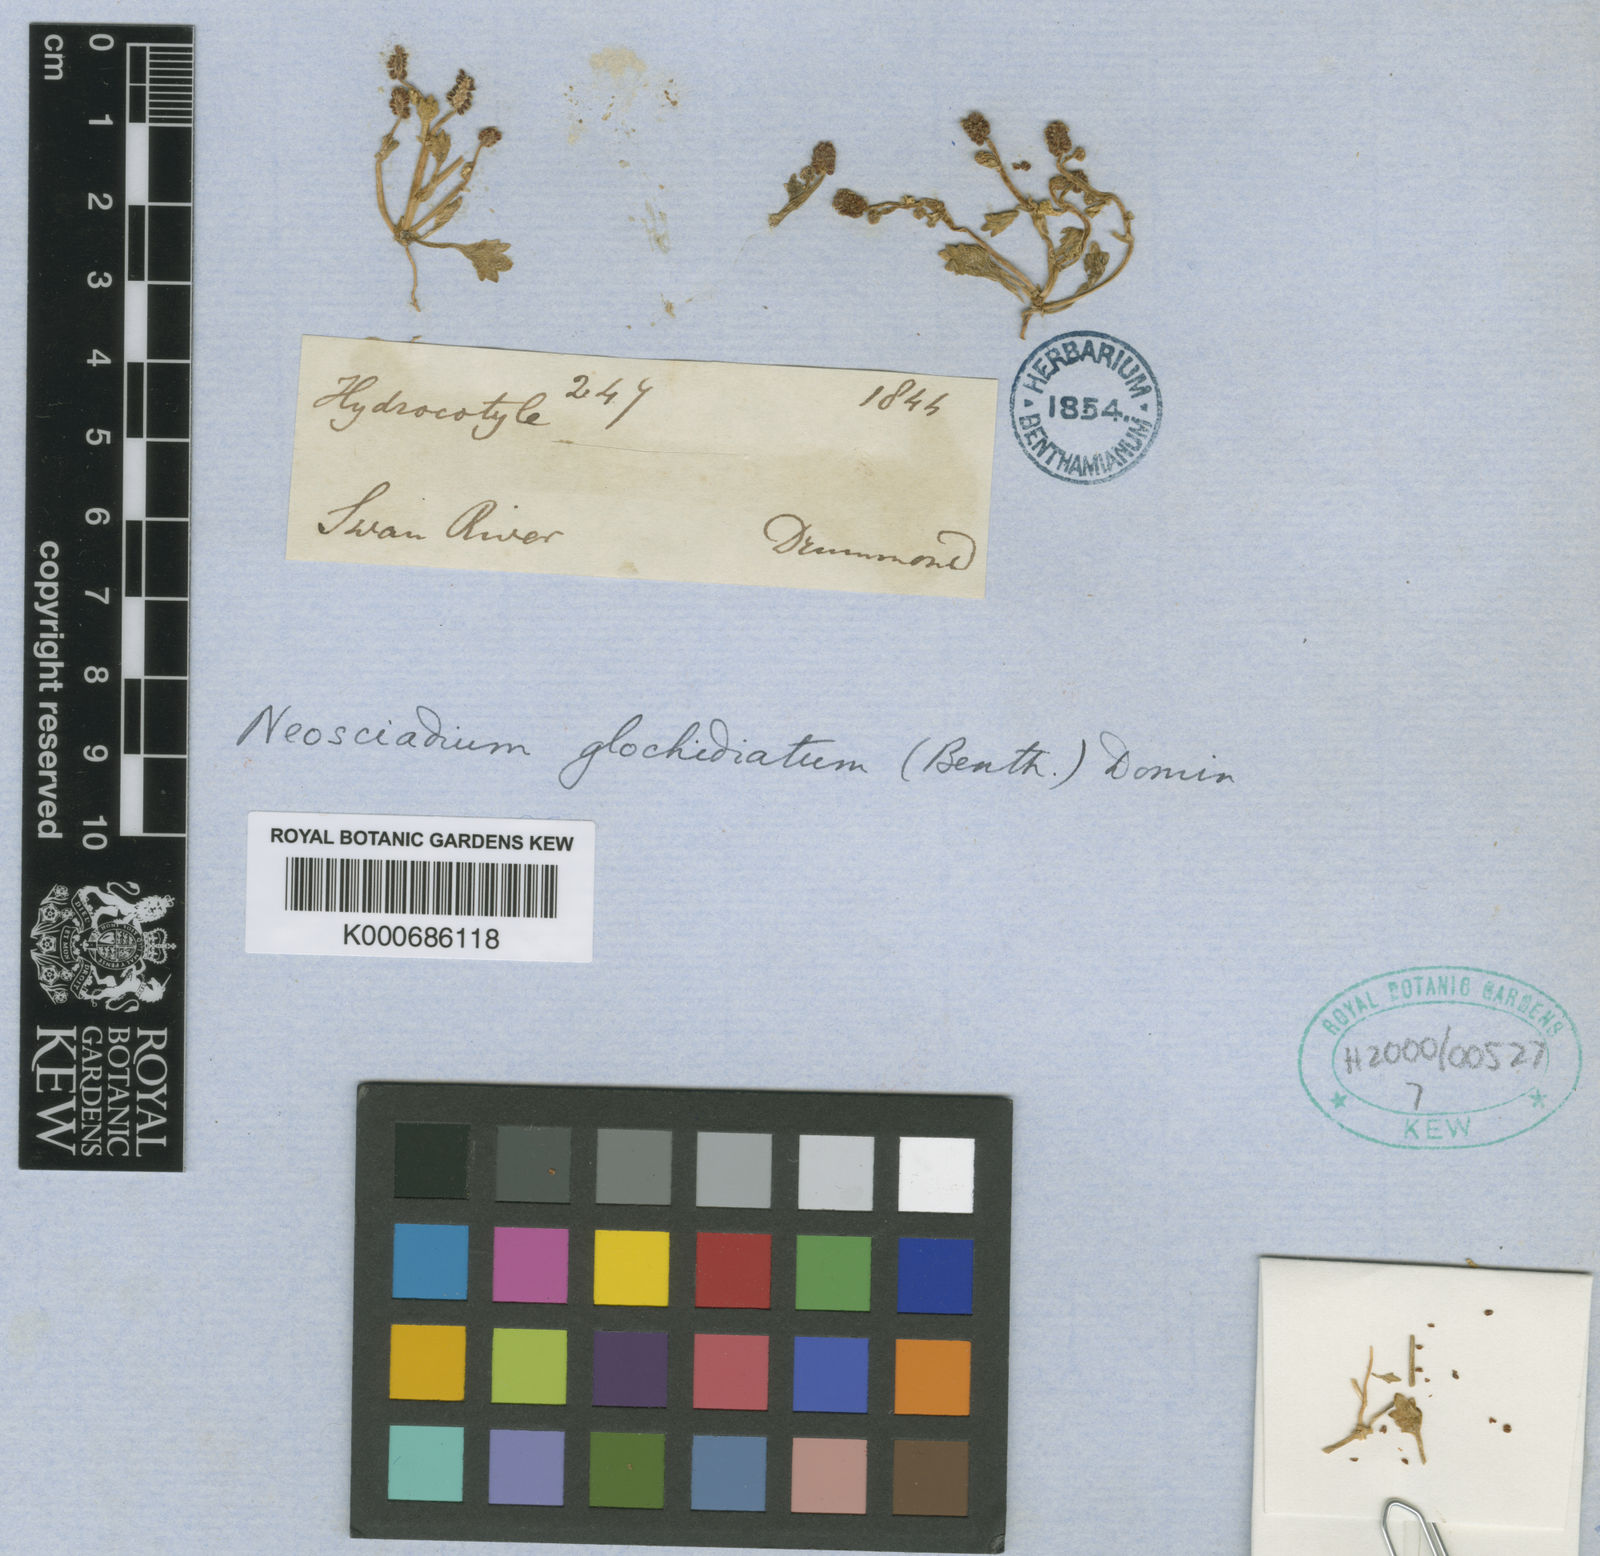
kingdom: Plantae
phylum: Tracheophyta
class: Magnoliopsida
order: Apiales
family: Araliaceae
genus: Hydrocotyle
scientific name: Hydrocotyle glochidiata
